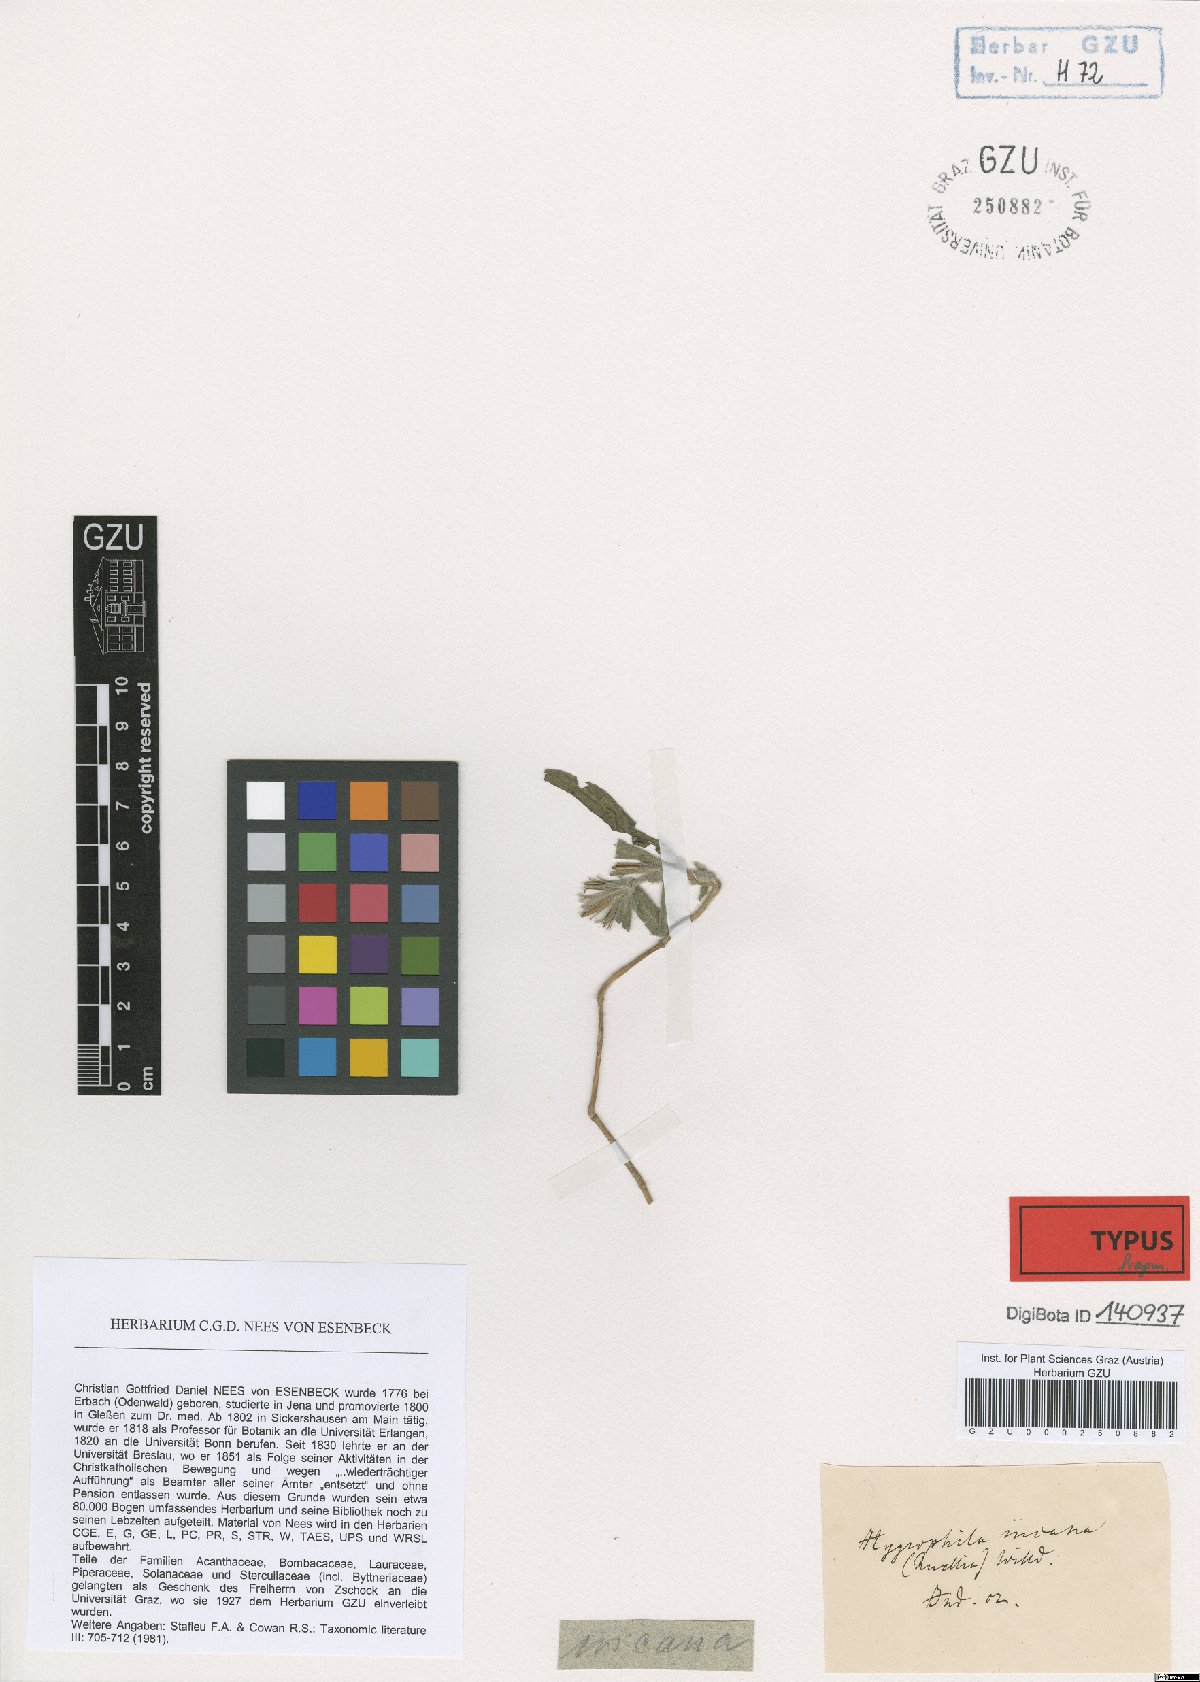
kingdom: Plantae
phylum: Tracheophyta
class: Magnoliopsida
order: Lamiales
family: Acanthaceae
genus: Hygrophila
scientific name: Hygrophila
